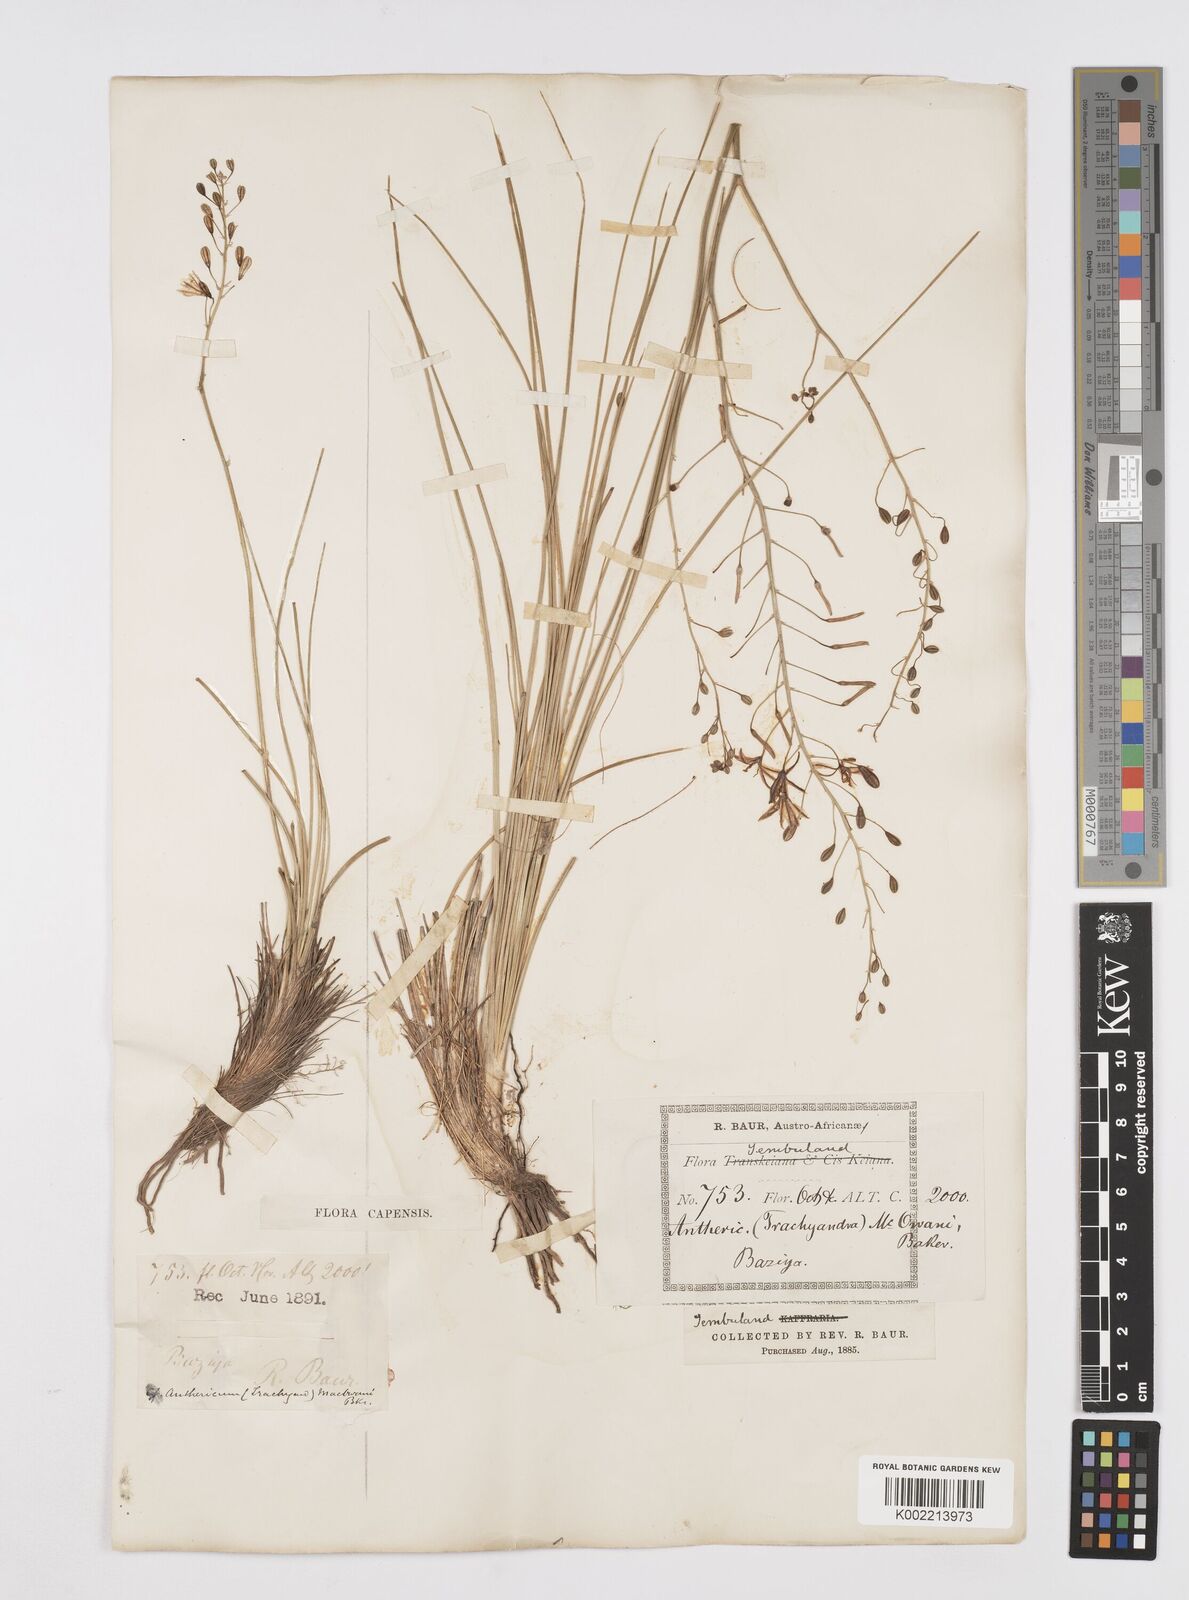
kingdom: Plantae
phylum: Tracheophyta
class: Liliopsida
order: Asparagales
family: Asphodelaceae
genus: Trachyandra
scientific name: Trachyandra asperata
